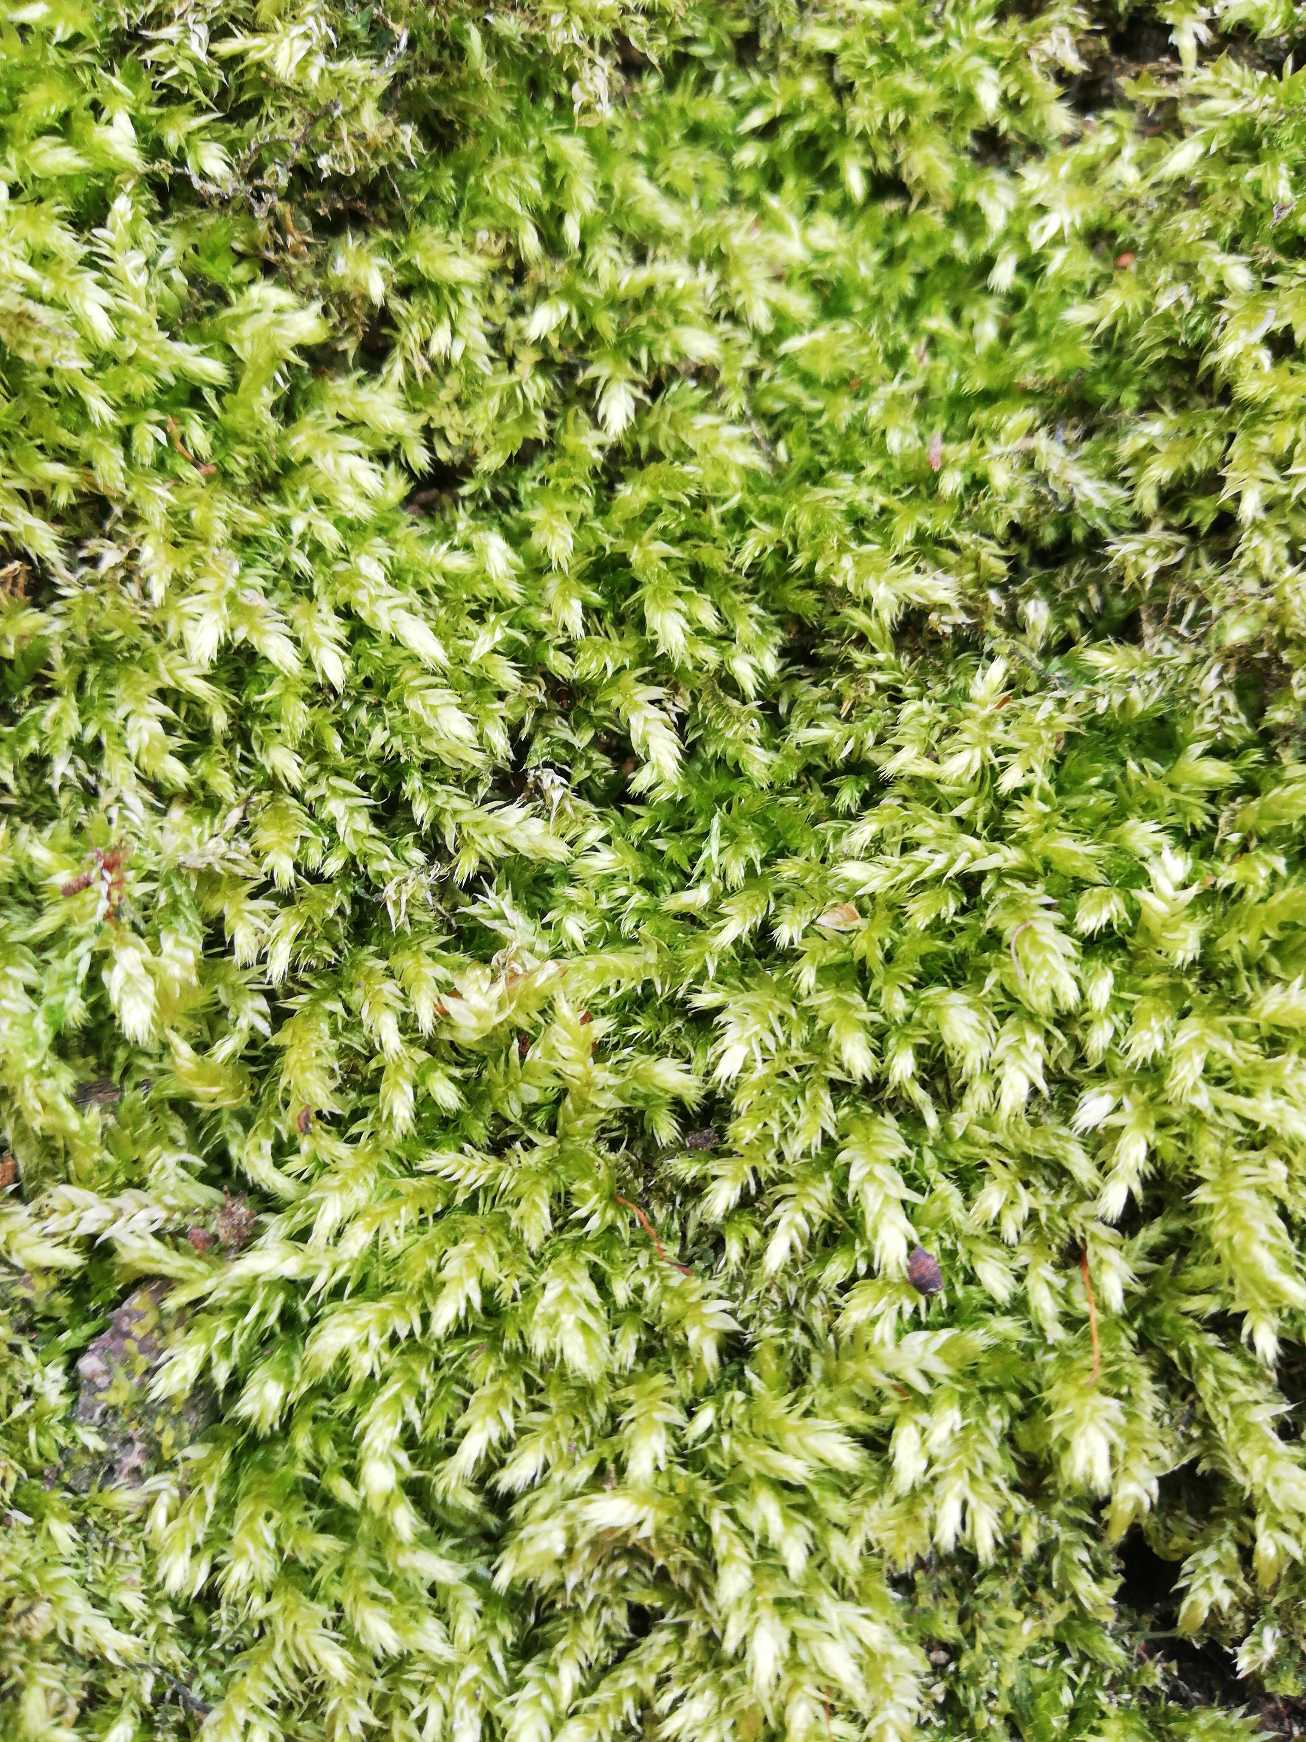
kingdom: Plantae
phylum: Bryophyta
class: Bryopsida
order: Hypnales
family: Brachytheciaceae
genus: Brachythecium
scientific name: Brachythecium rutabulum
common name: Almindelig kortkapsel
